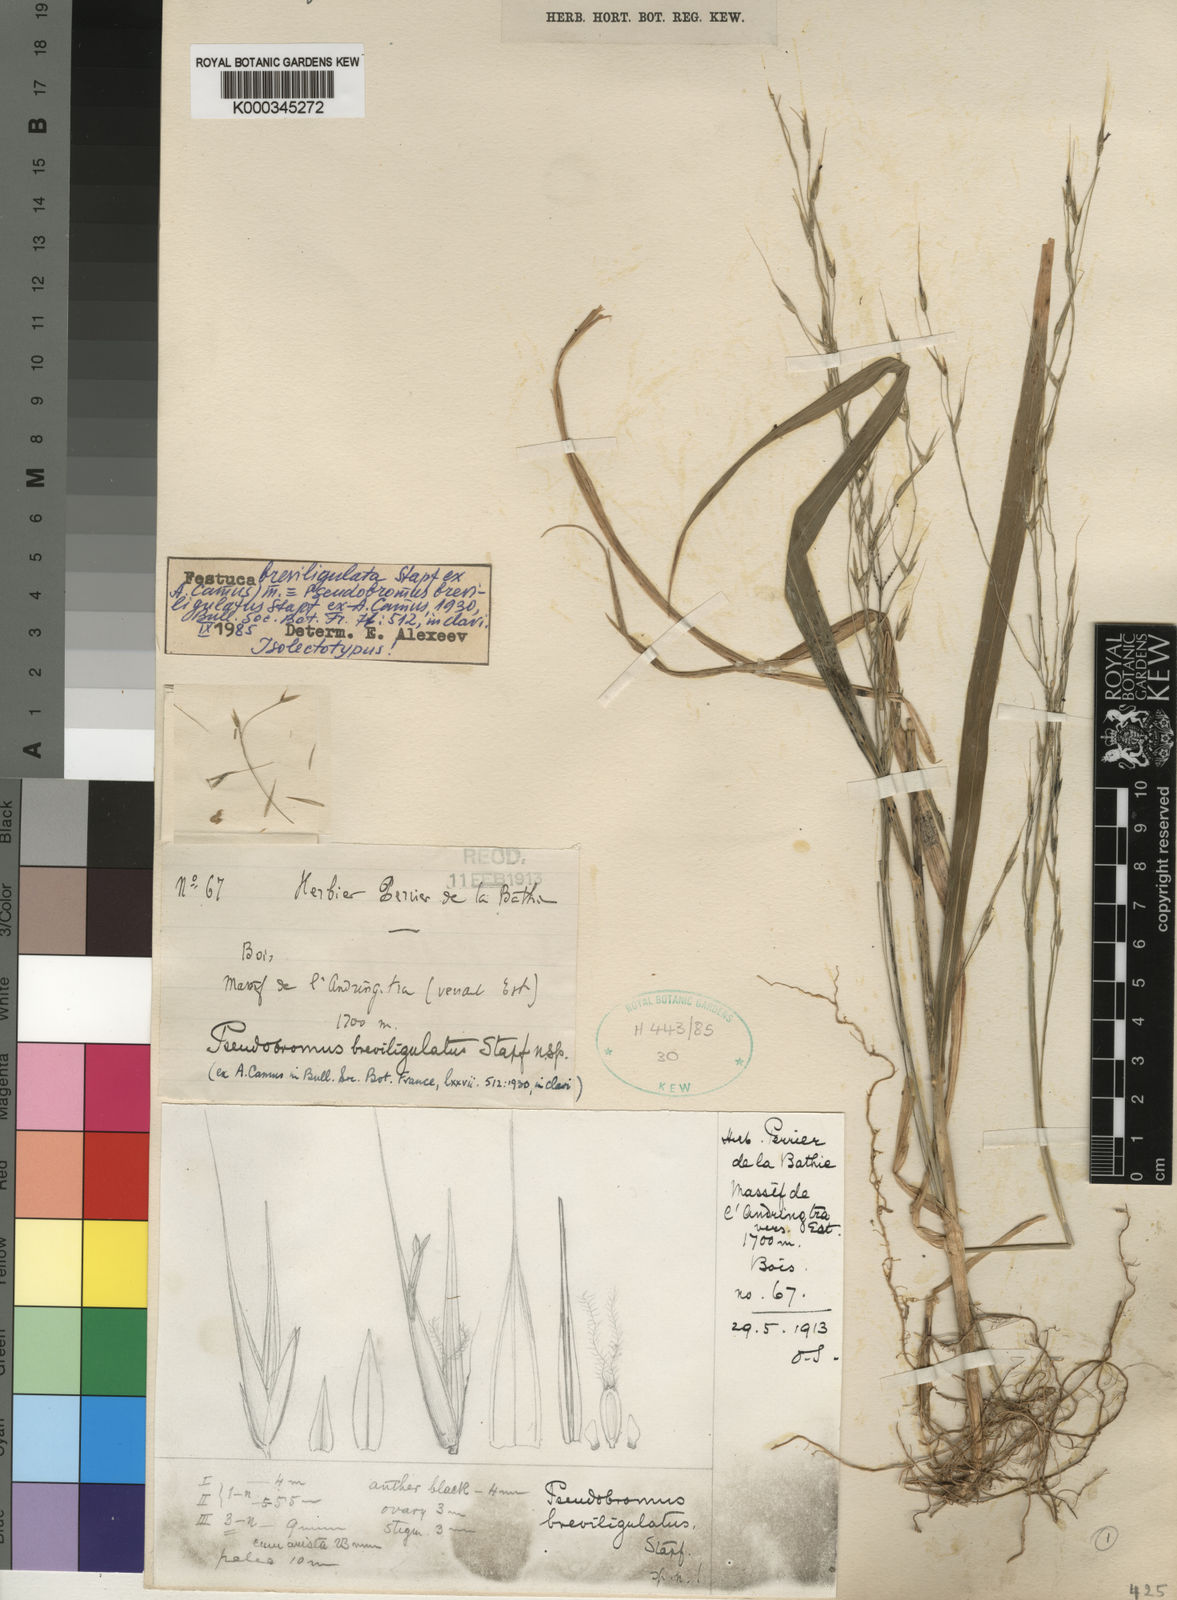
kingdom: Plantae
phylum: Tracheophyta
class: Liliopsida
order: Poales
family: Poaceae
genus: Festuca
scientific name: Festuca
